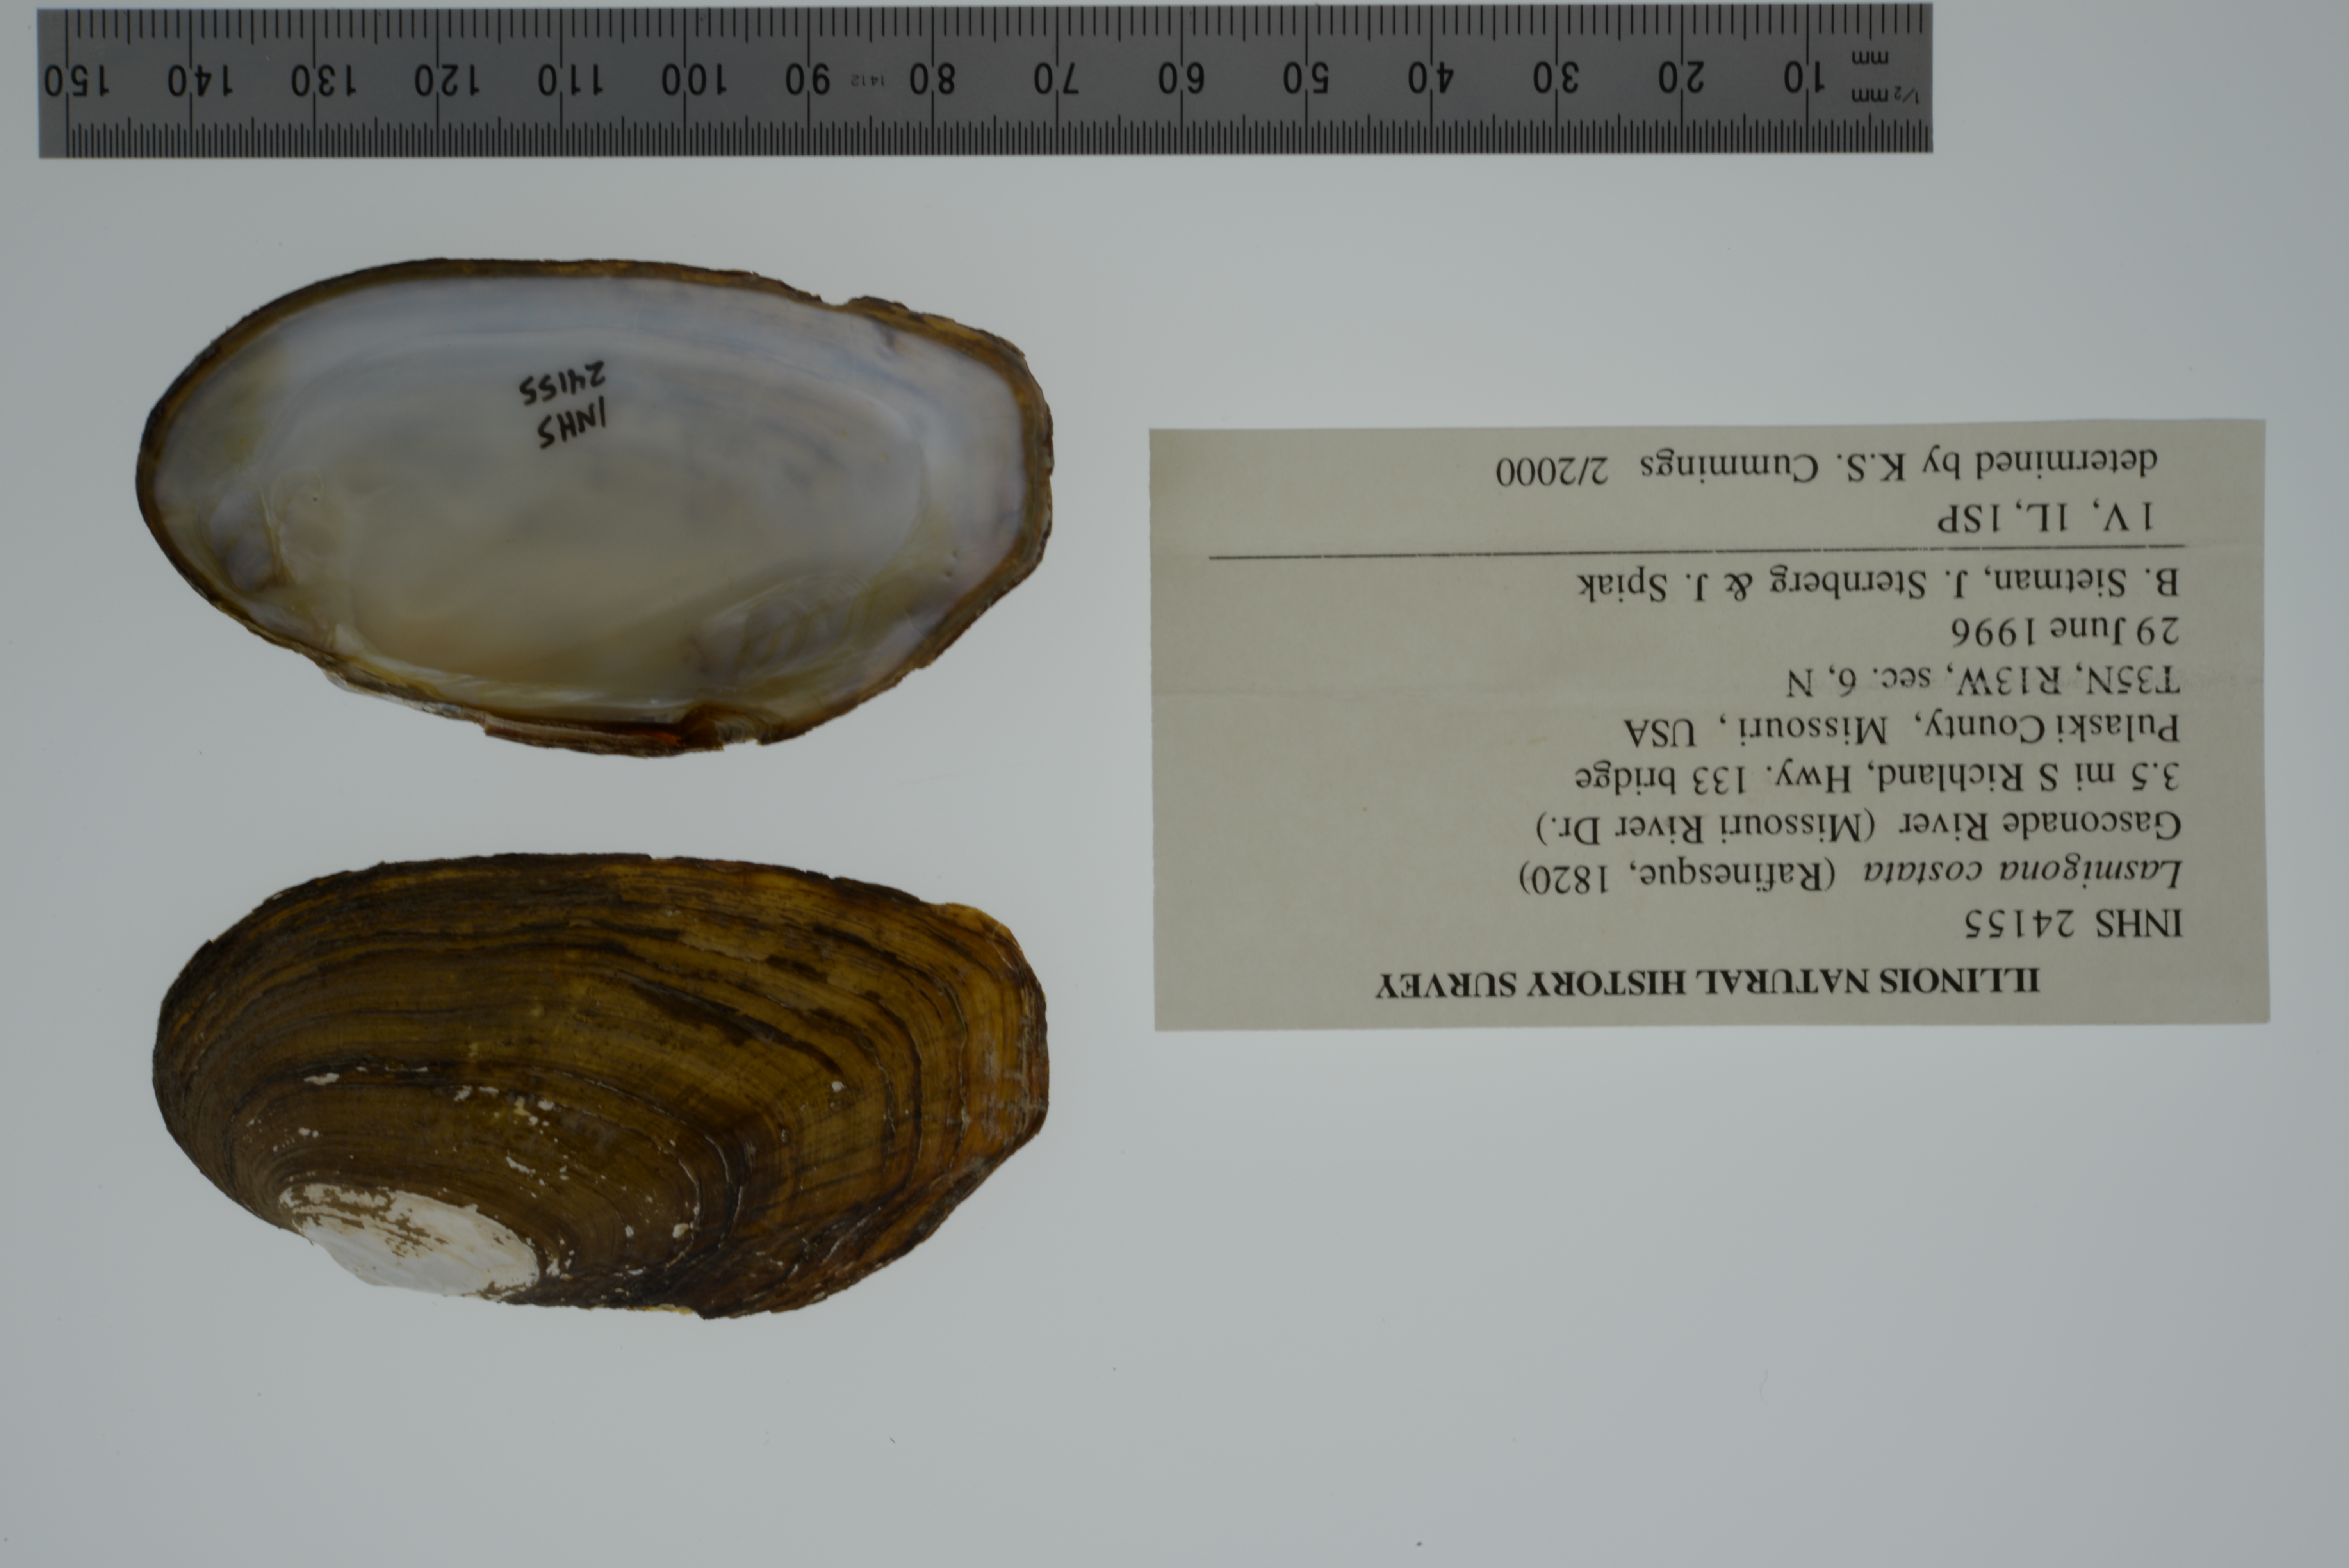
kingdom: Animalia
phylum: Mollusca
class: Bivalvia
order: Unionida
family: Unionidae
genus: Lasmigona
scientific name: Lasmigona costata
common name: Flutedshell
